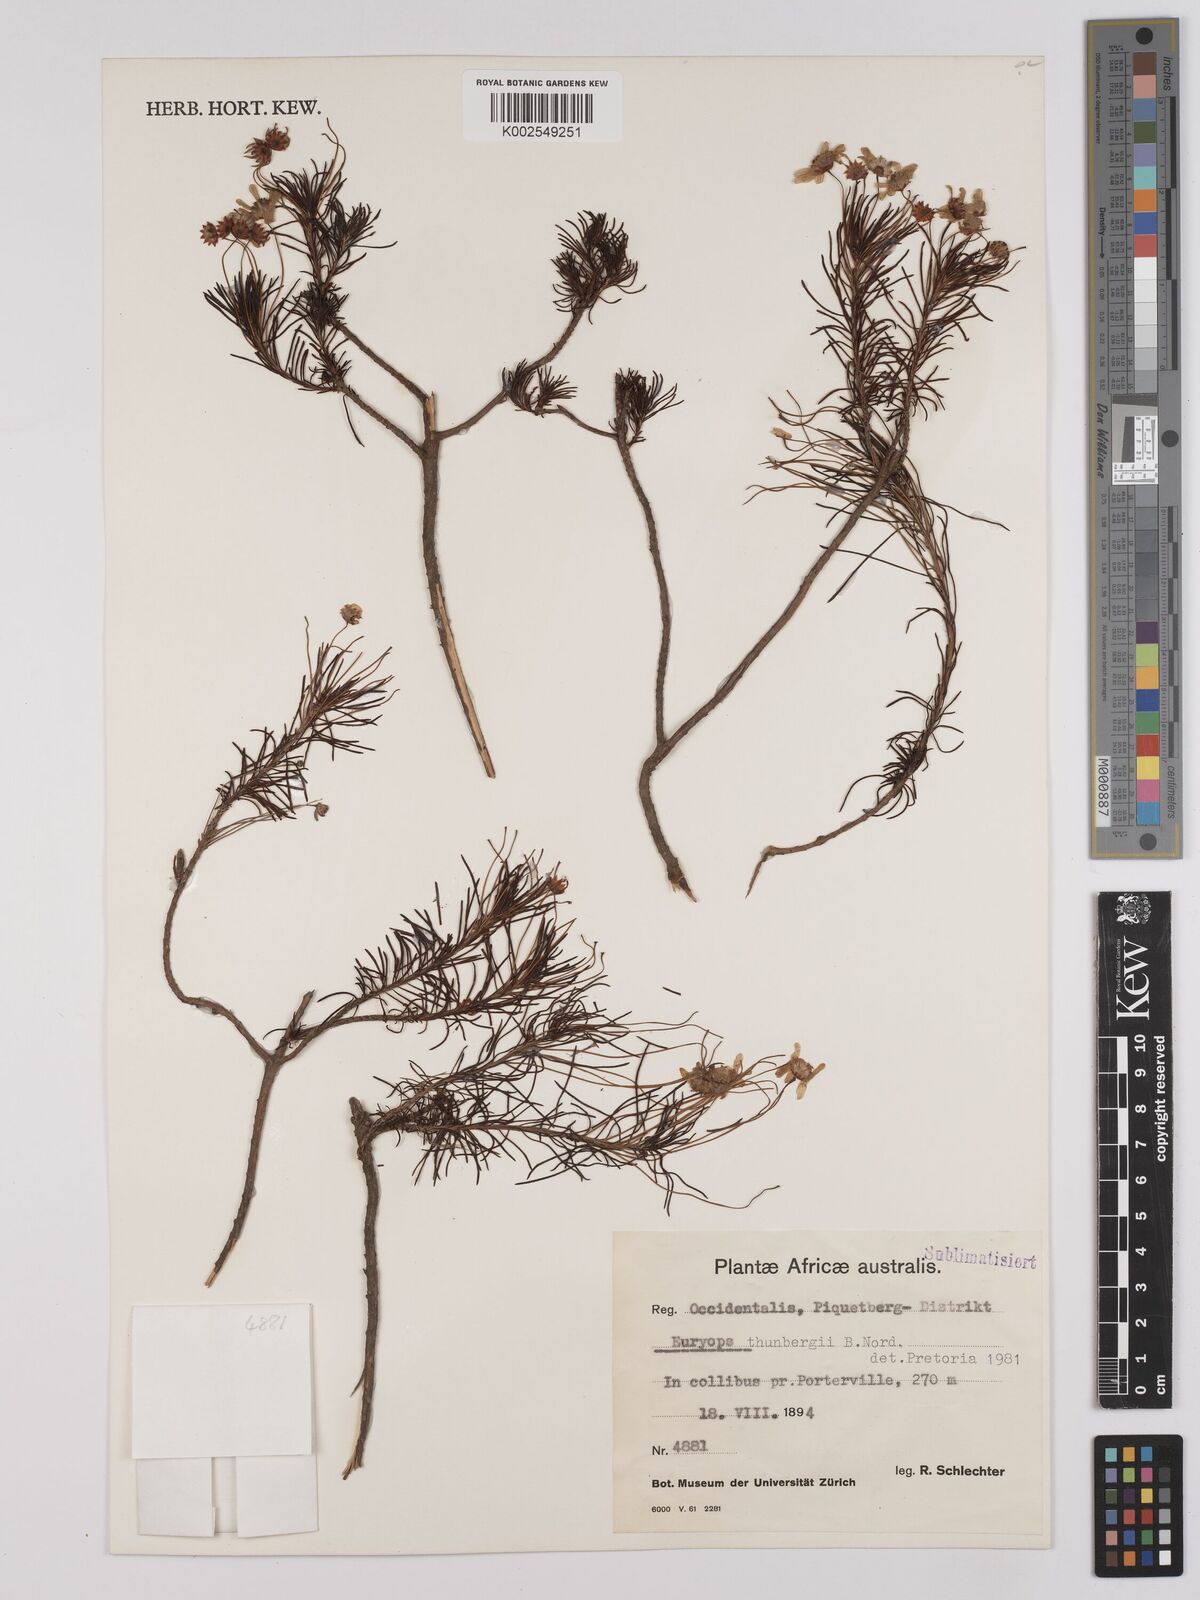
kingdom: Plantae
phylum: Tracheophyta
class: Magnoliopsida
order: Asterales
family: Asteraceae
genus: Euryops
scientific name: Euryops thunbergii
